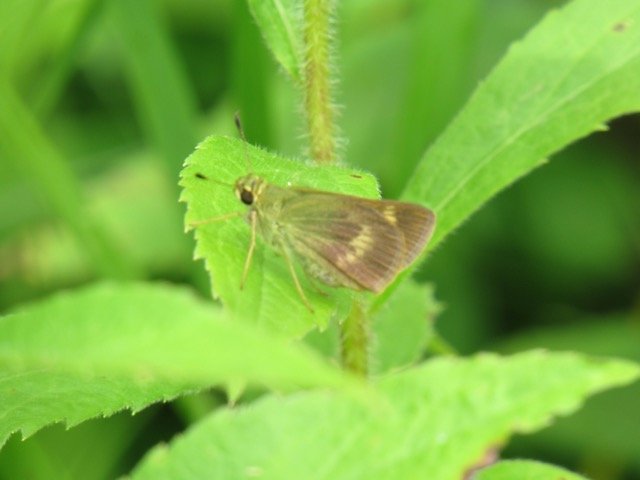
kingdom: Animalia
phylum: Arthropoda
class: Insecta
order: Lepidoptera
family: Hesperiidae
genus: Polites
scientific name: Polites egeremet
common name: Northern Broken-Dash
